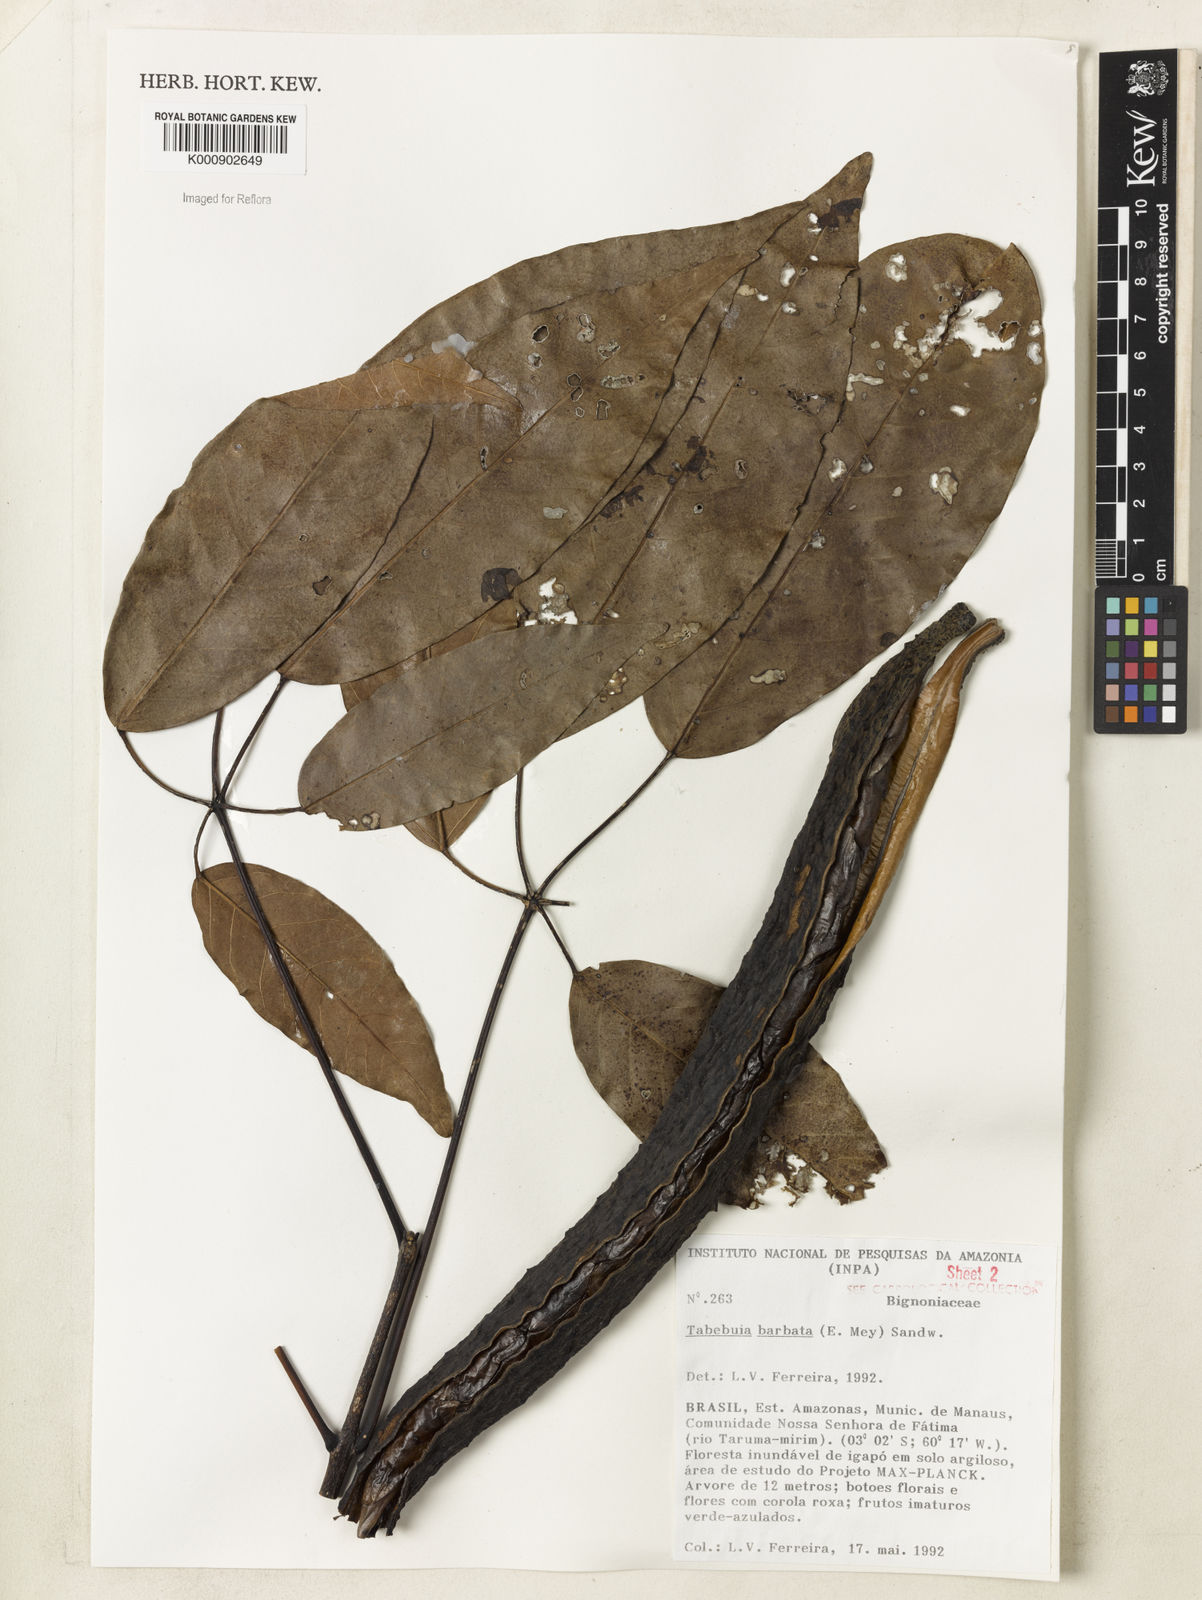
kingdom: Plantae
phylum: Tracheophyta
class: Magnoliopsida
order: Lamiales
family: Bignoniaceae
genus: Handroanthus
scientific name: Handroanthus barbatus
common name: Trumpet trees
